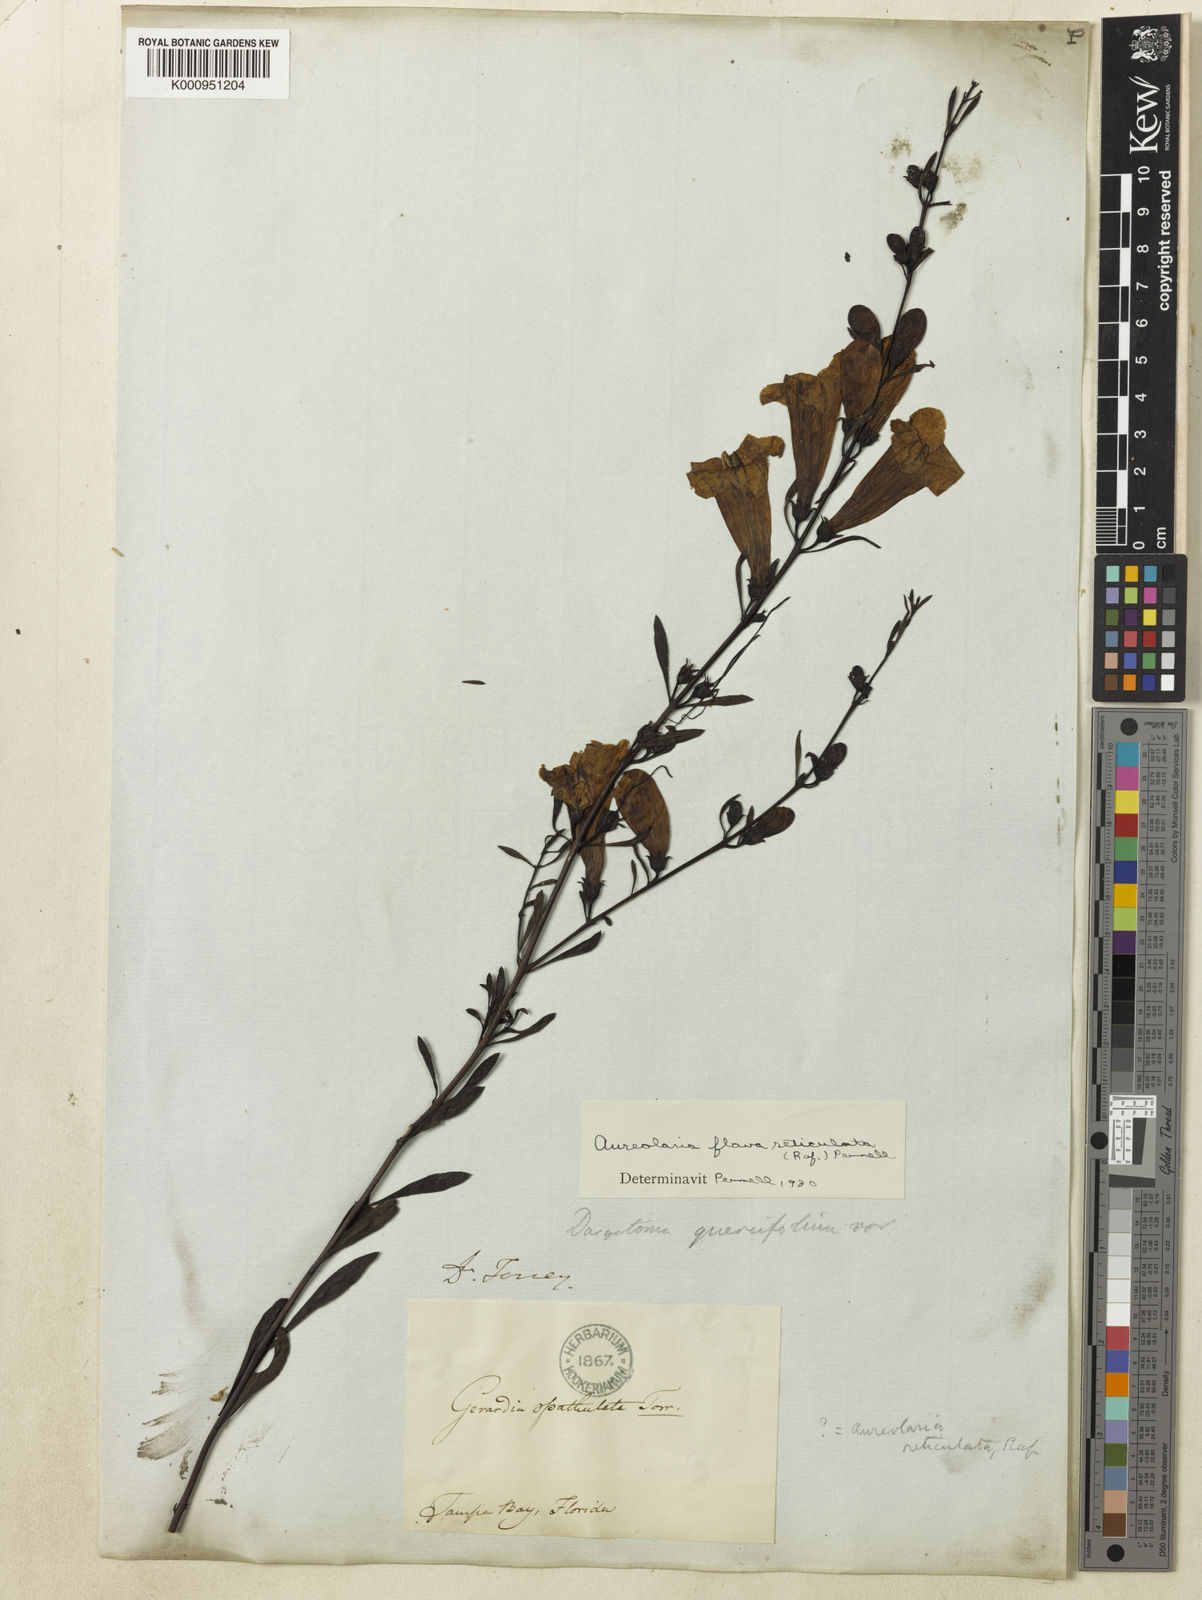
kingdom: Plantae
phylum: Tracheophyta
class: Magnoliopsida
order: Lamiales
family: Orobanchaceae
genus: Aureolaria
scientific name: Aureolaria flava
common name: Smooth false foxglove
